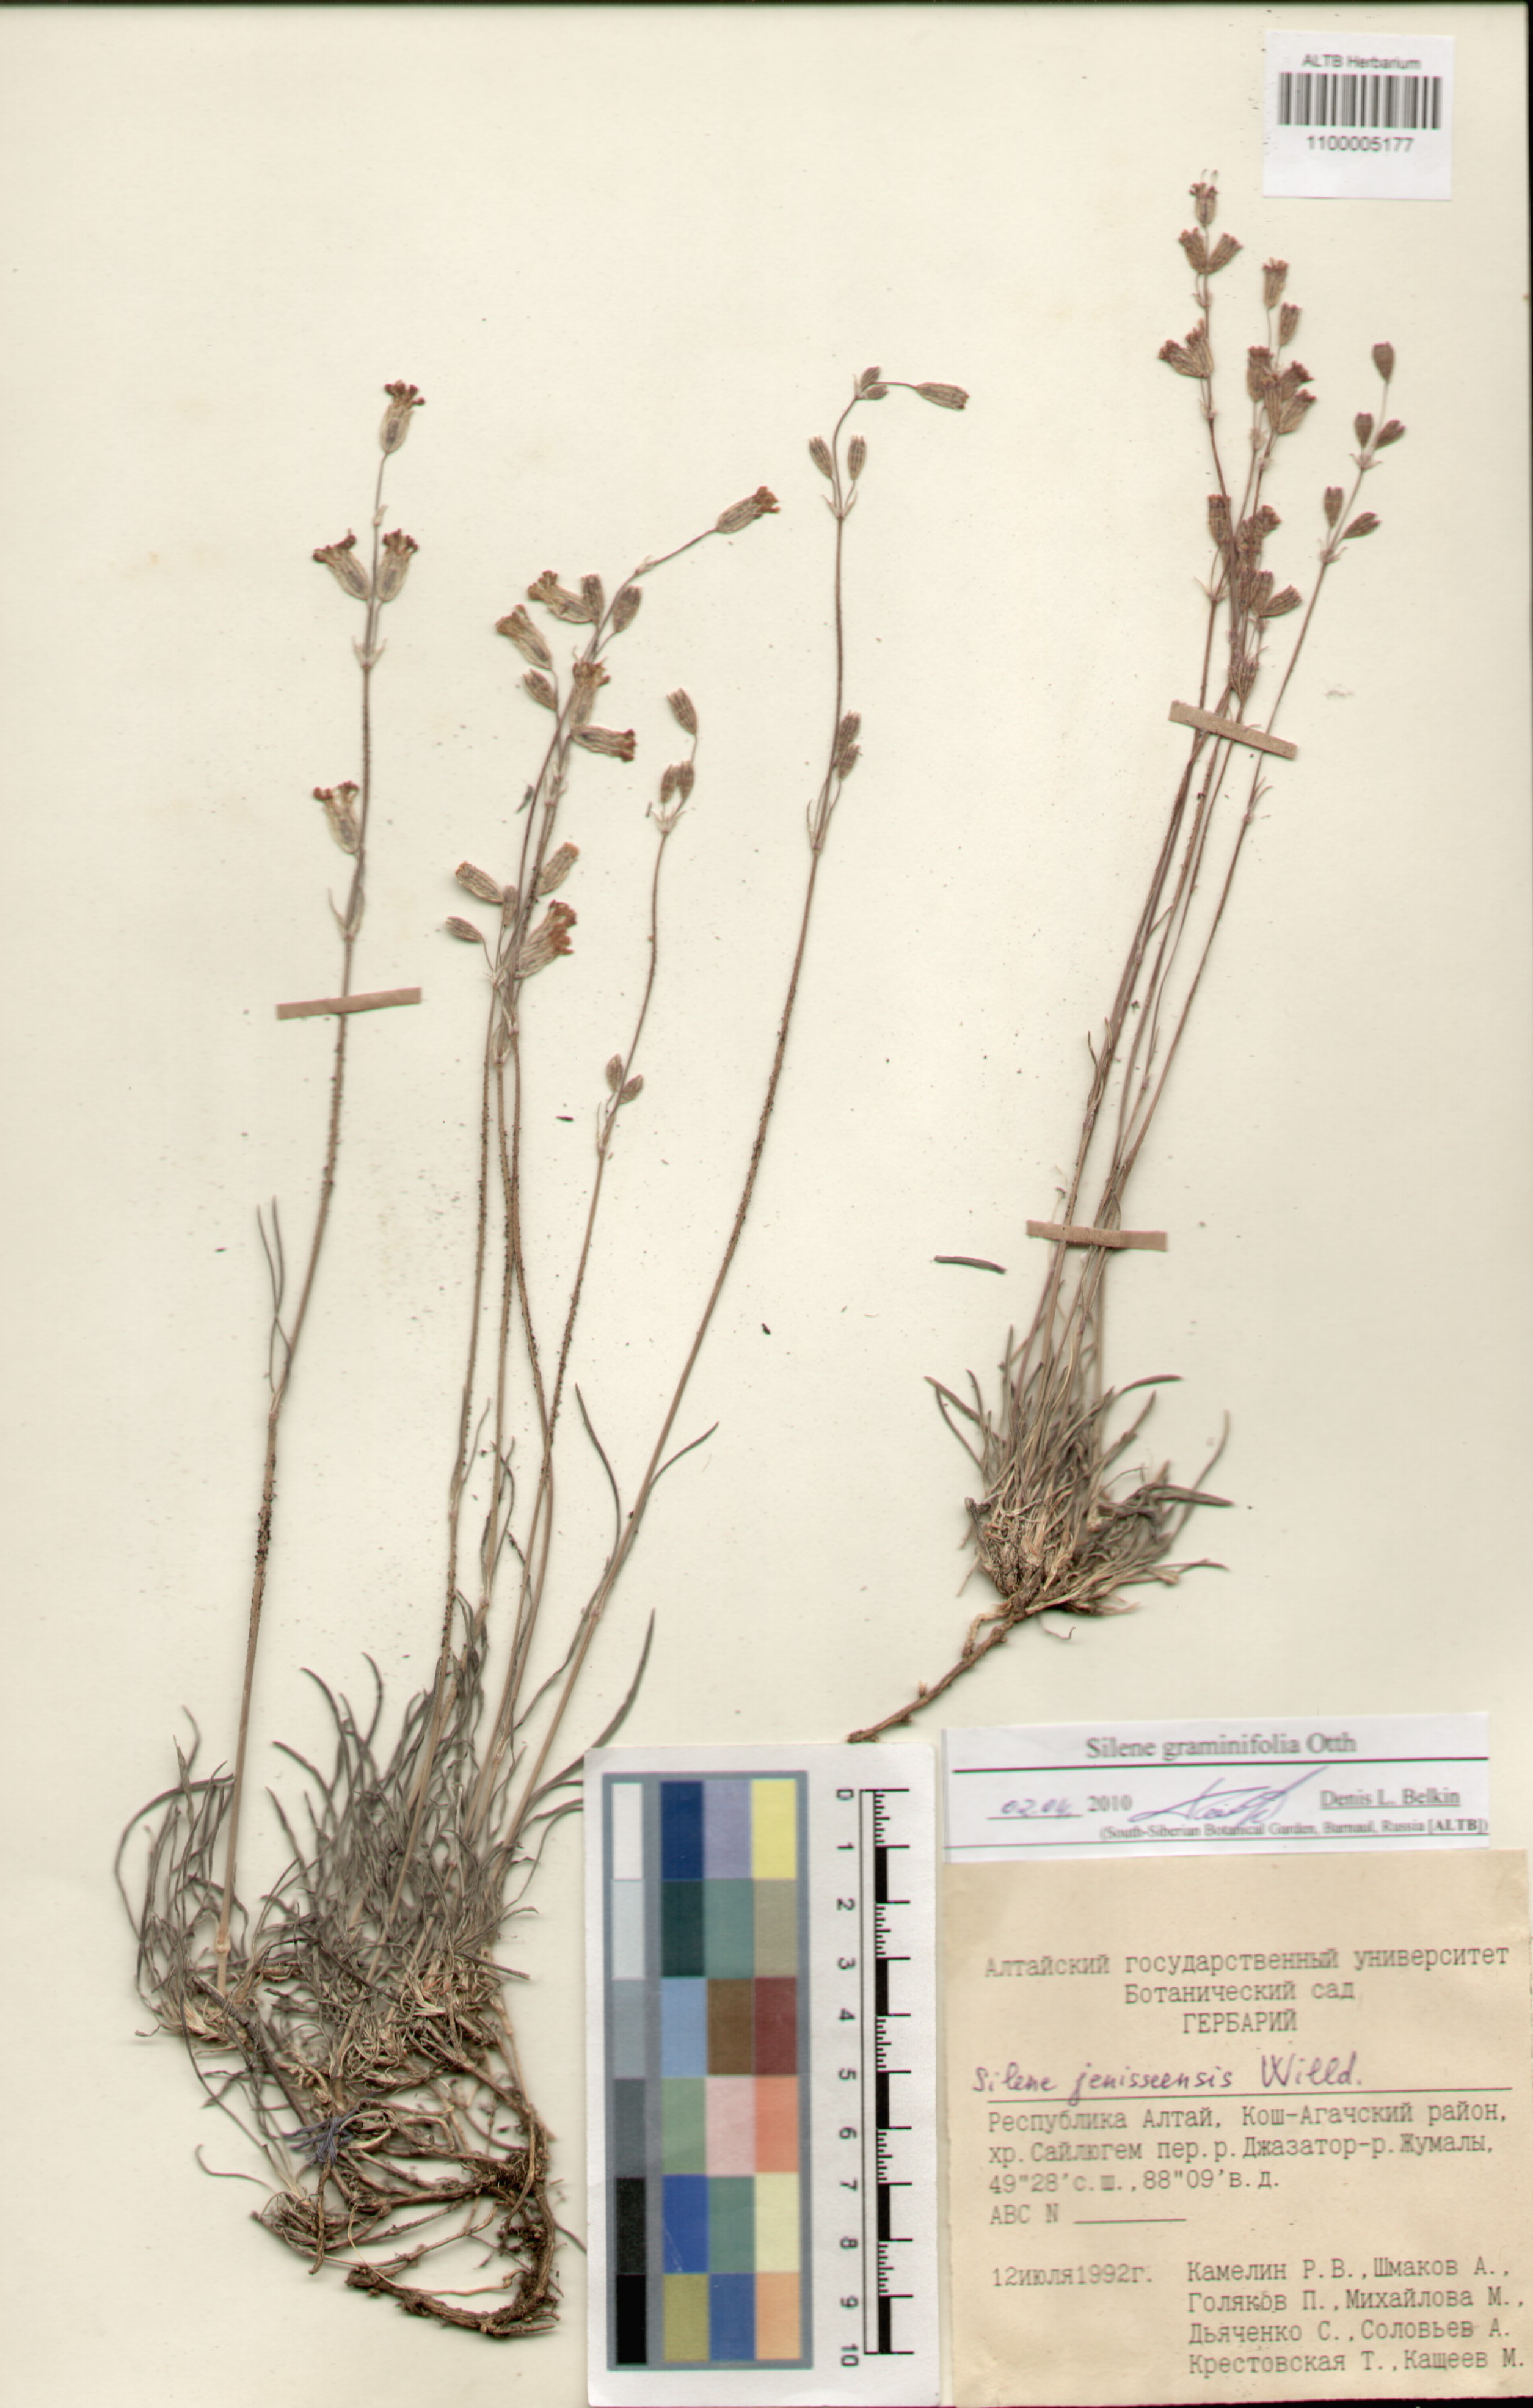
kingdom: Plantae
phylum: Tracheophyta
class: Magnoliopsida
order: Caryophyllales
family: Caryophyllaceae
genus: Silene
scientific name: Silene graminifolia
